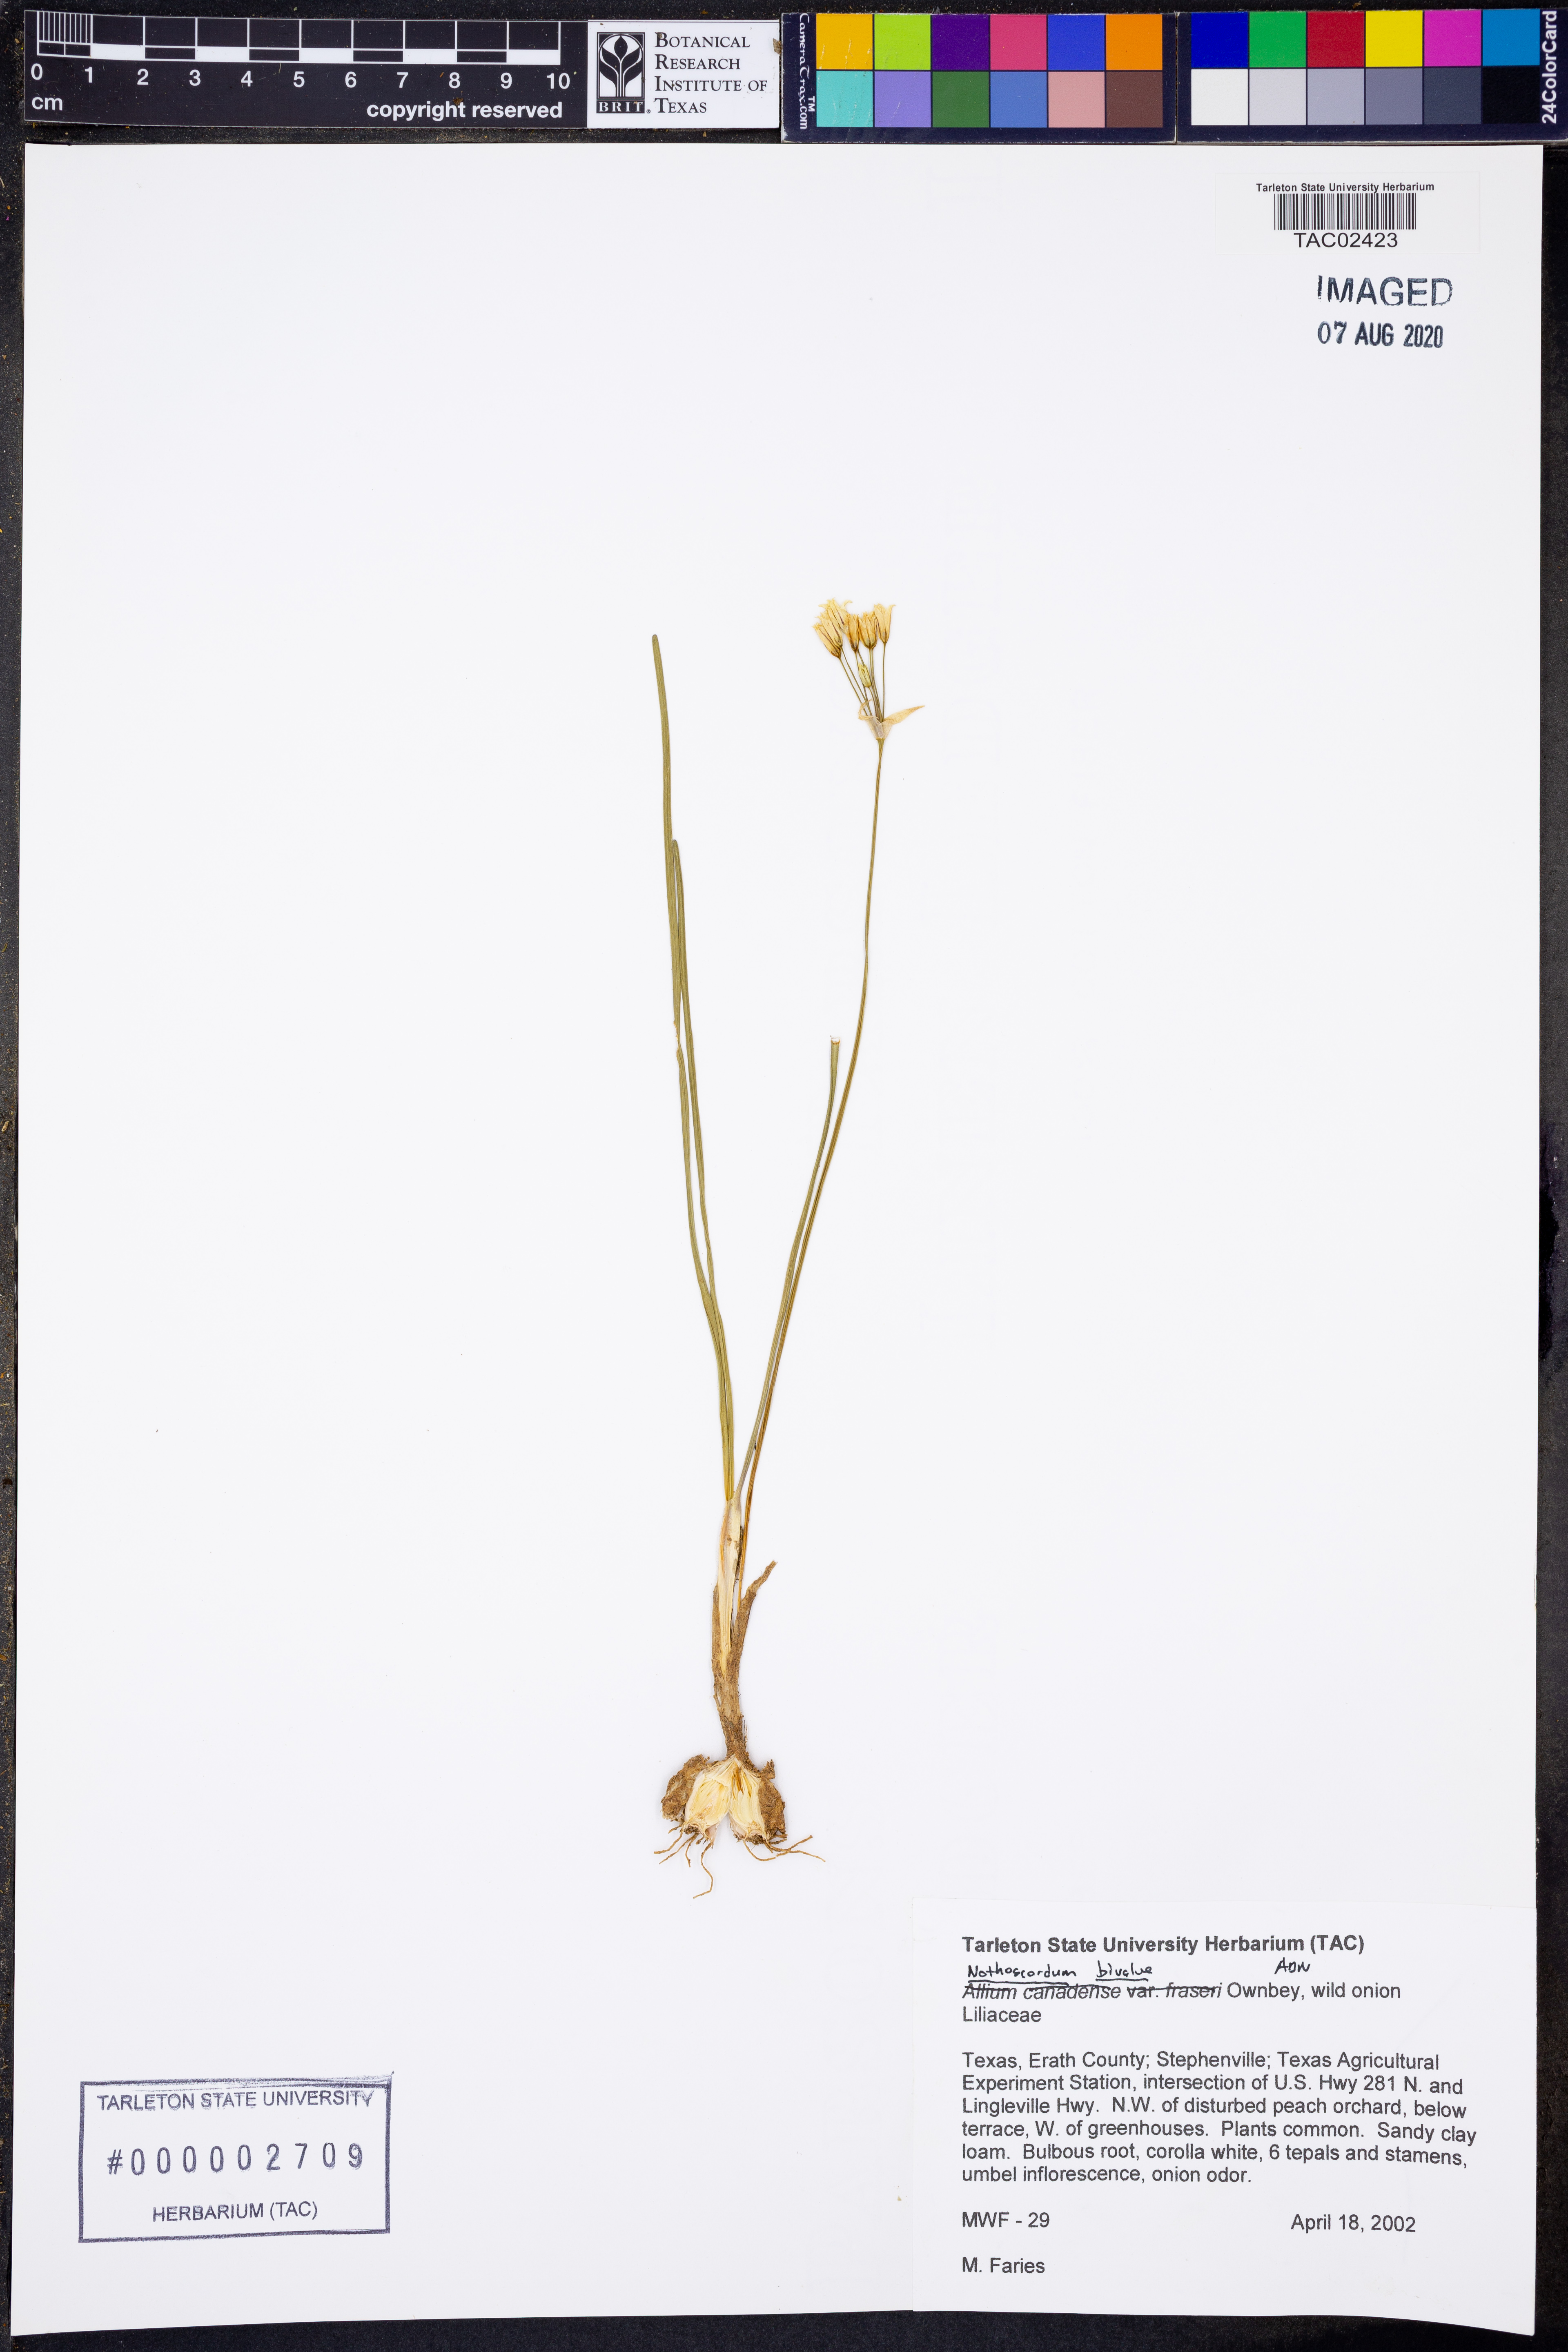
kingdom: Plantae
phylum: Tracheophyta
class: Liliopsida
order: Asparagales
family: Amaryllidaceae
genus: Nothoscordum
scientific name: Nothoscordum bivalve
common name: Crow-poison
